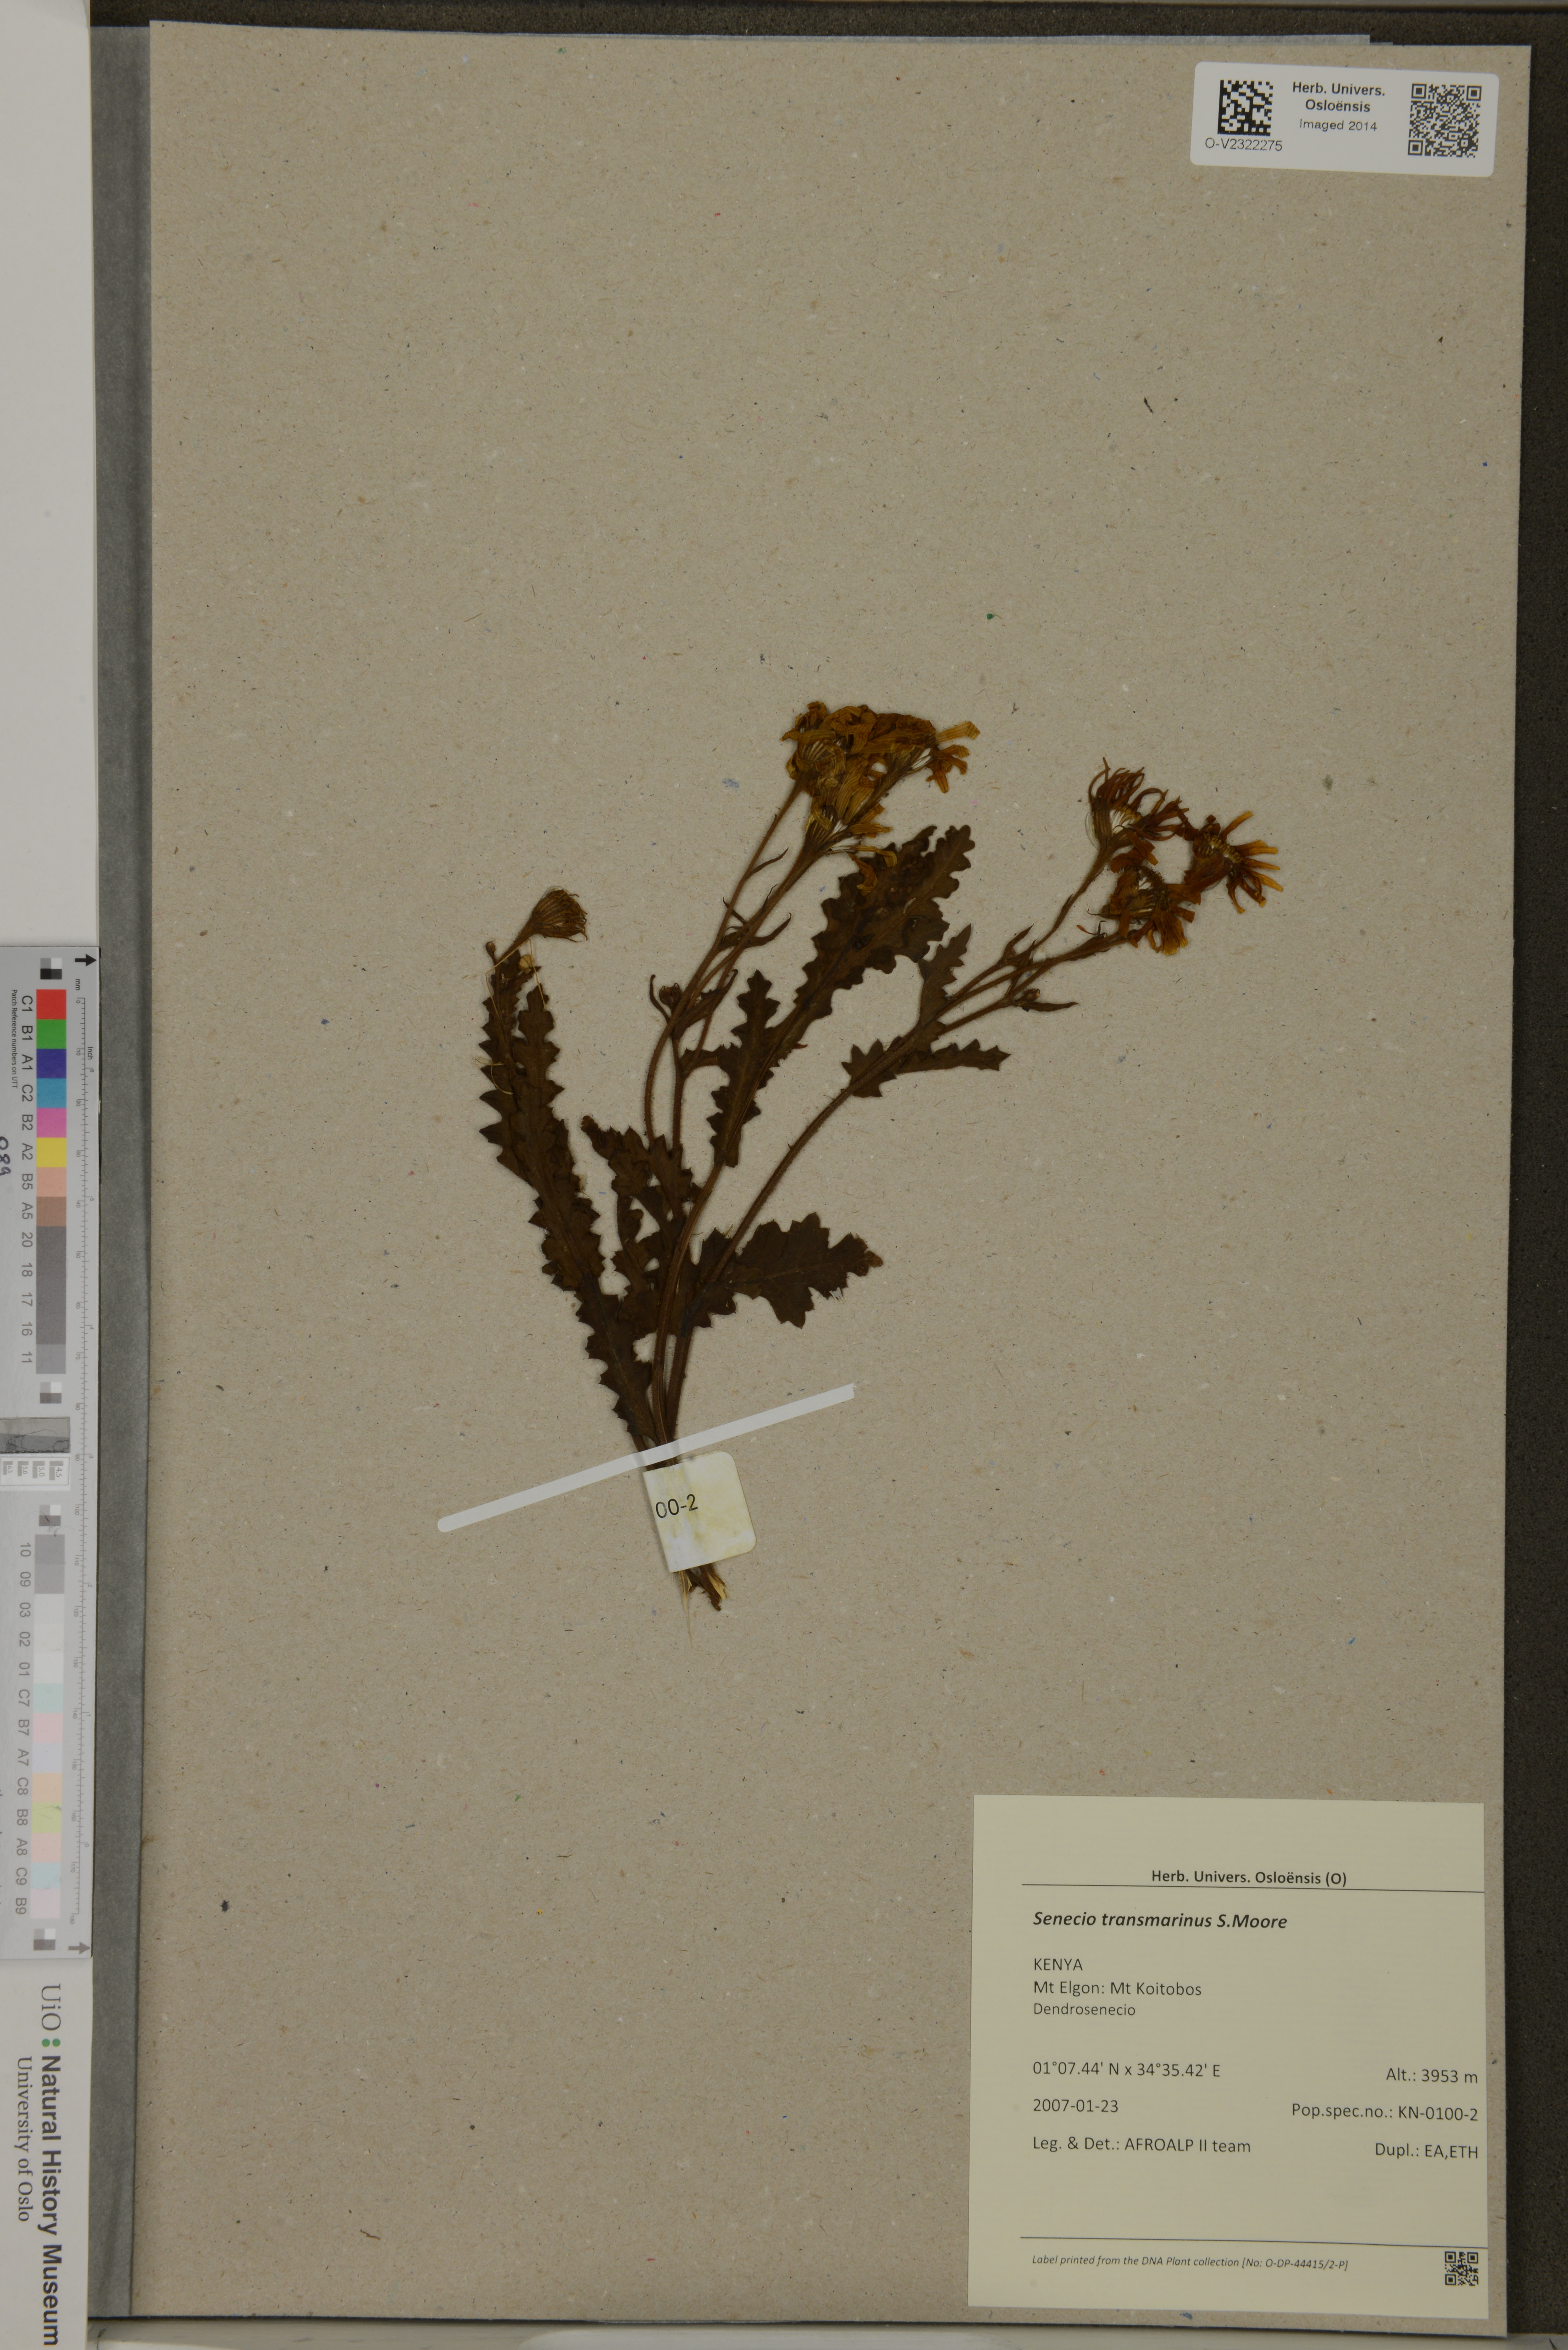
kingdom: Plantae
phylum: Tracheophyta
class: Magnoliopsida
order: Asterales
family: Asteraceae
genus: Senecio
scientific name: Senecio transmarinus
